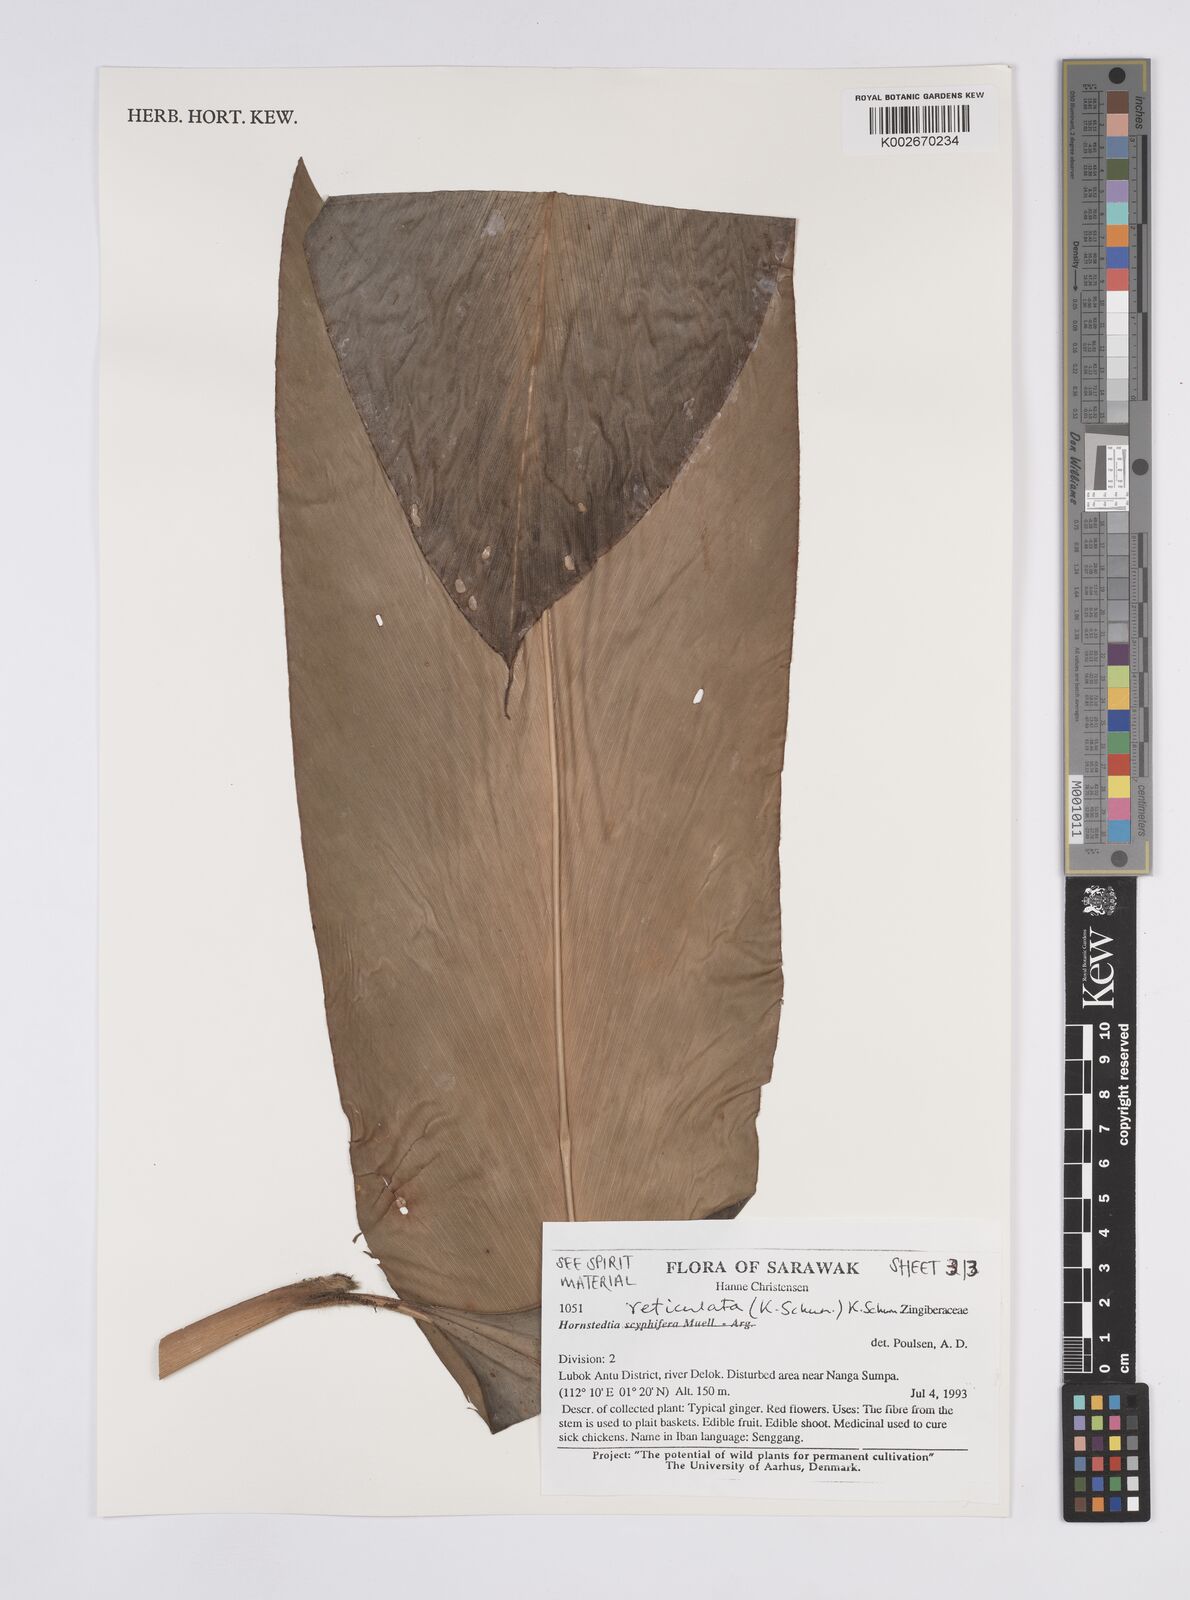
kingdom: Plantae
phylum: Tracheophyta
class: Liliopsida
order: Zingiberales
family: Zingiberaceae
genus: Hornstedtia
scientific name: Hornstedtia reticulata
